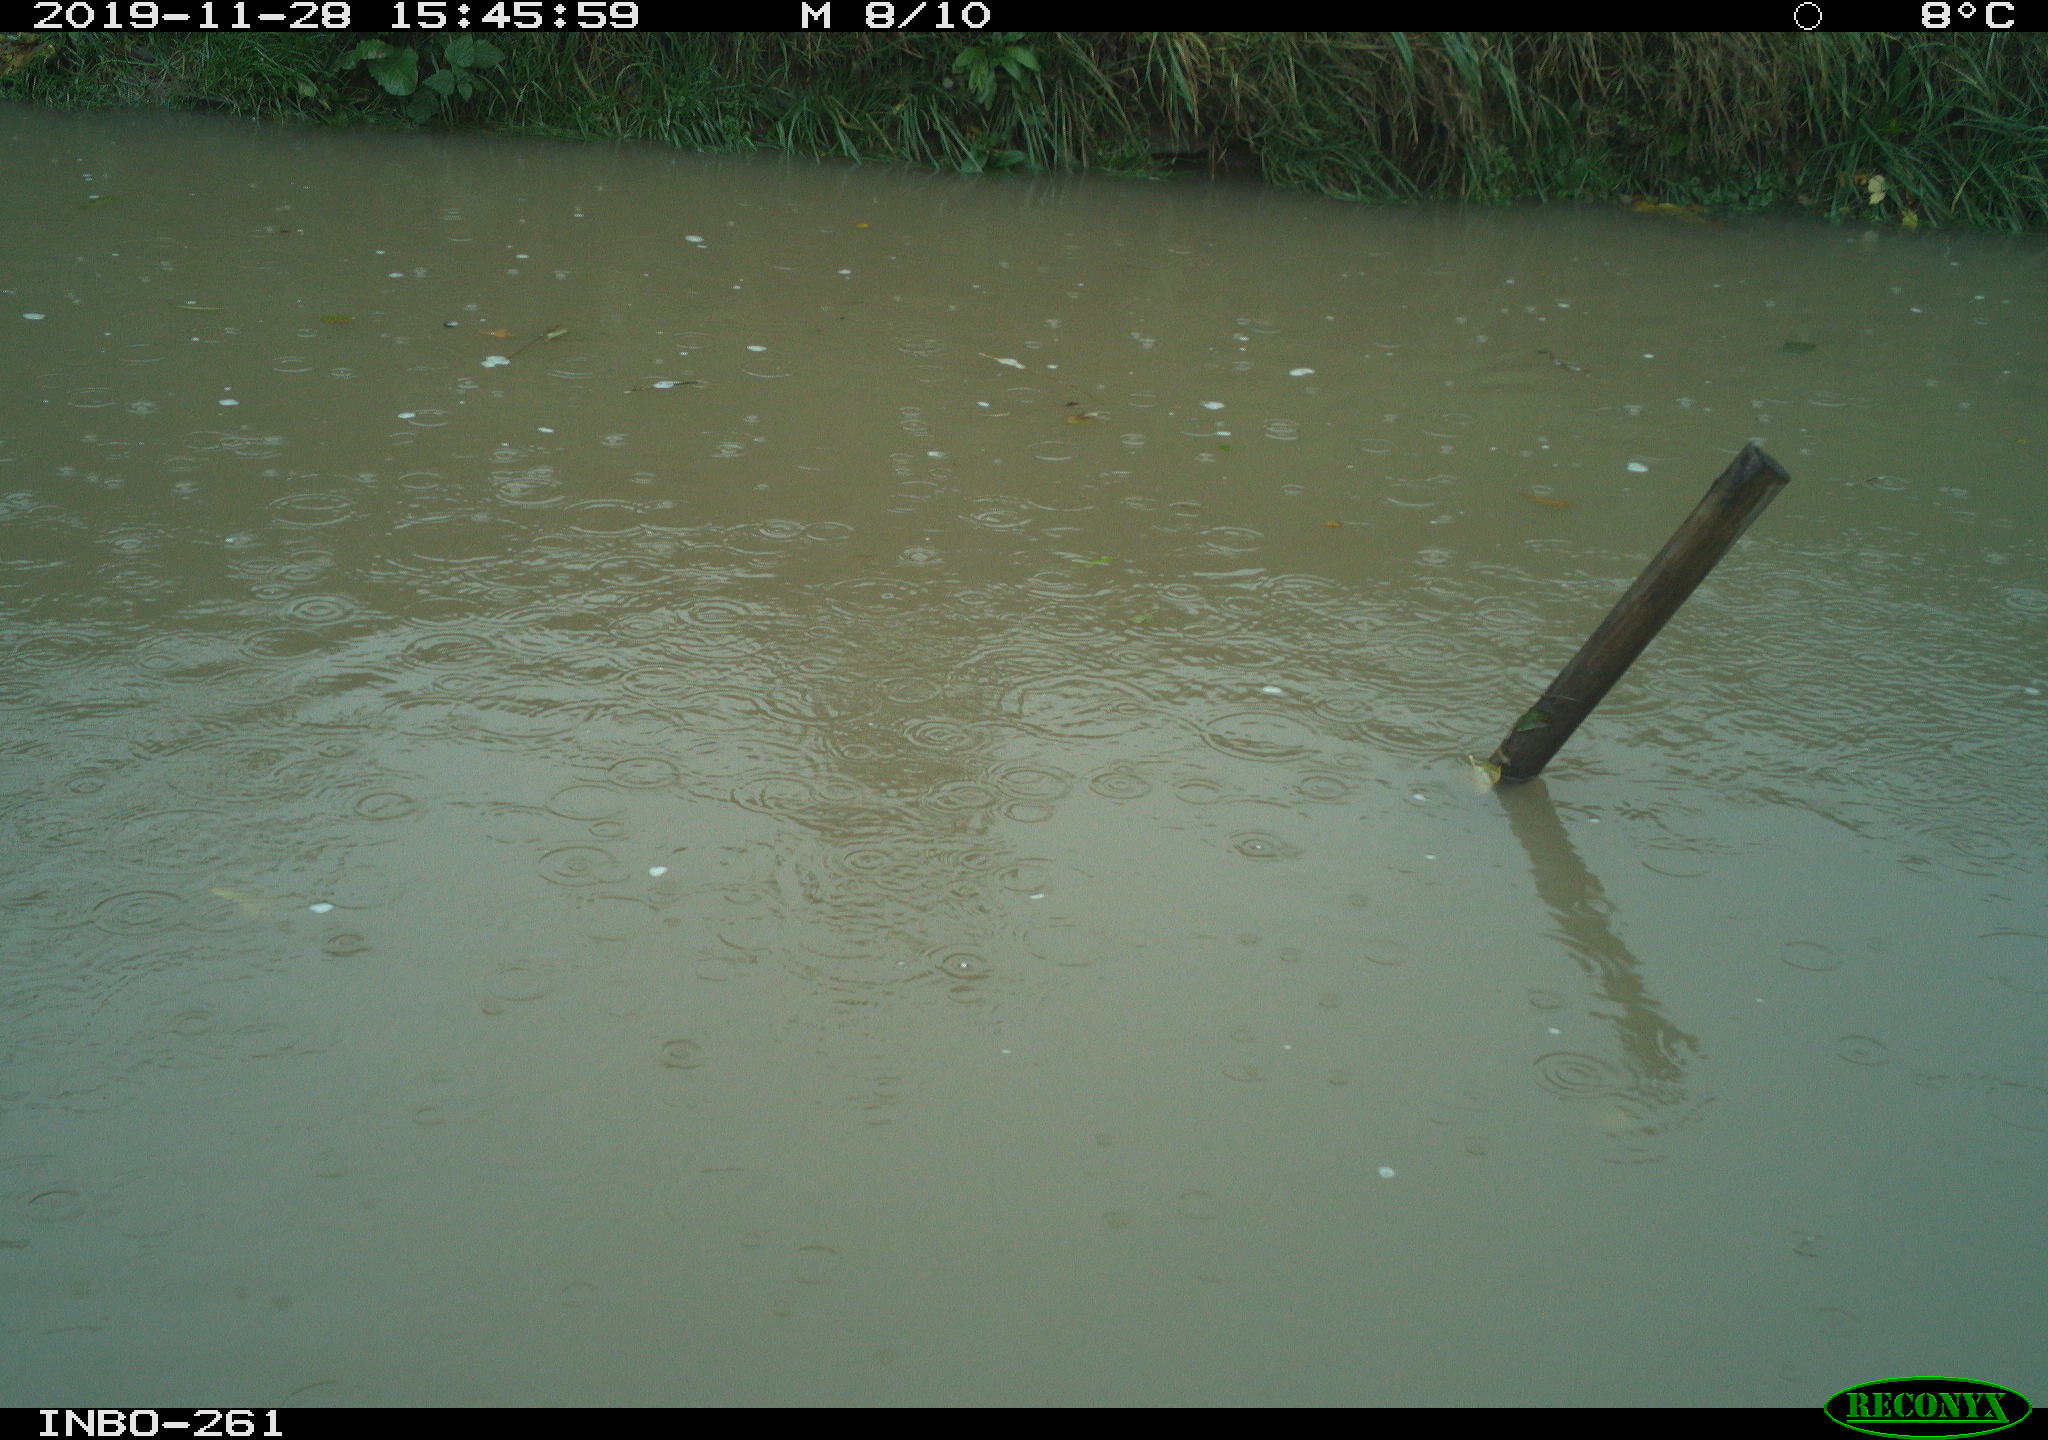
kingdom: Animalia
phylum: Chordata
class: Aves
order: Gruiformes
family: Rallidae
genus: Gallinula
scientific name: Gallinula chloropus
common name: Common moorhen
